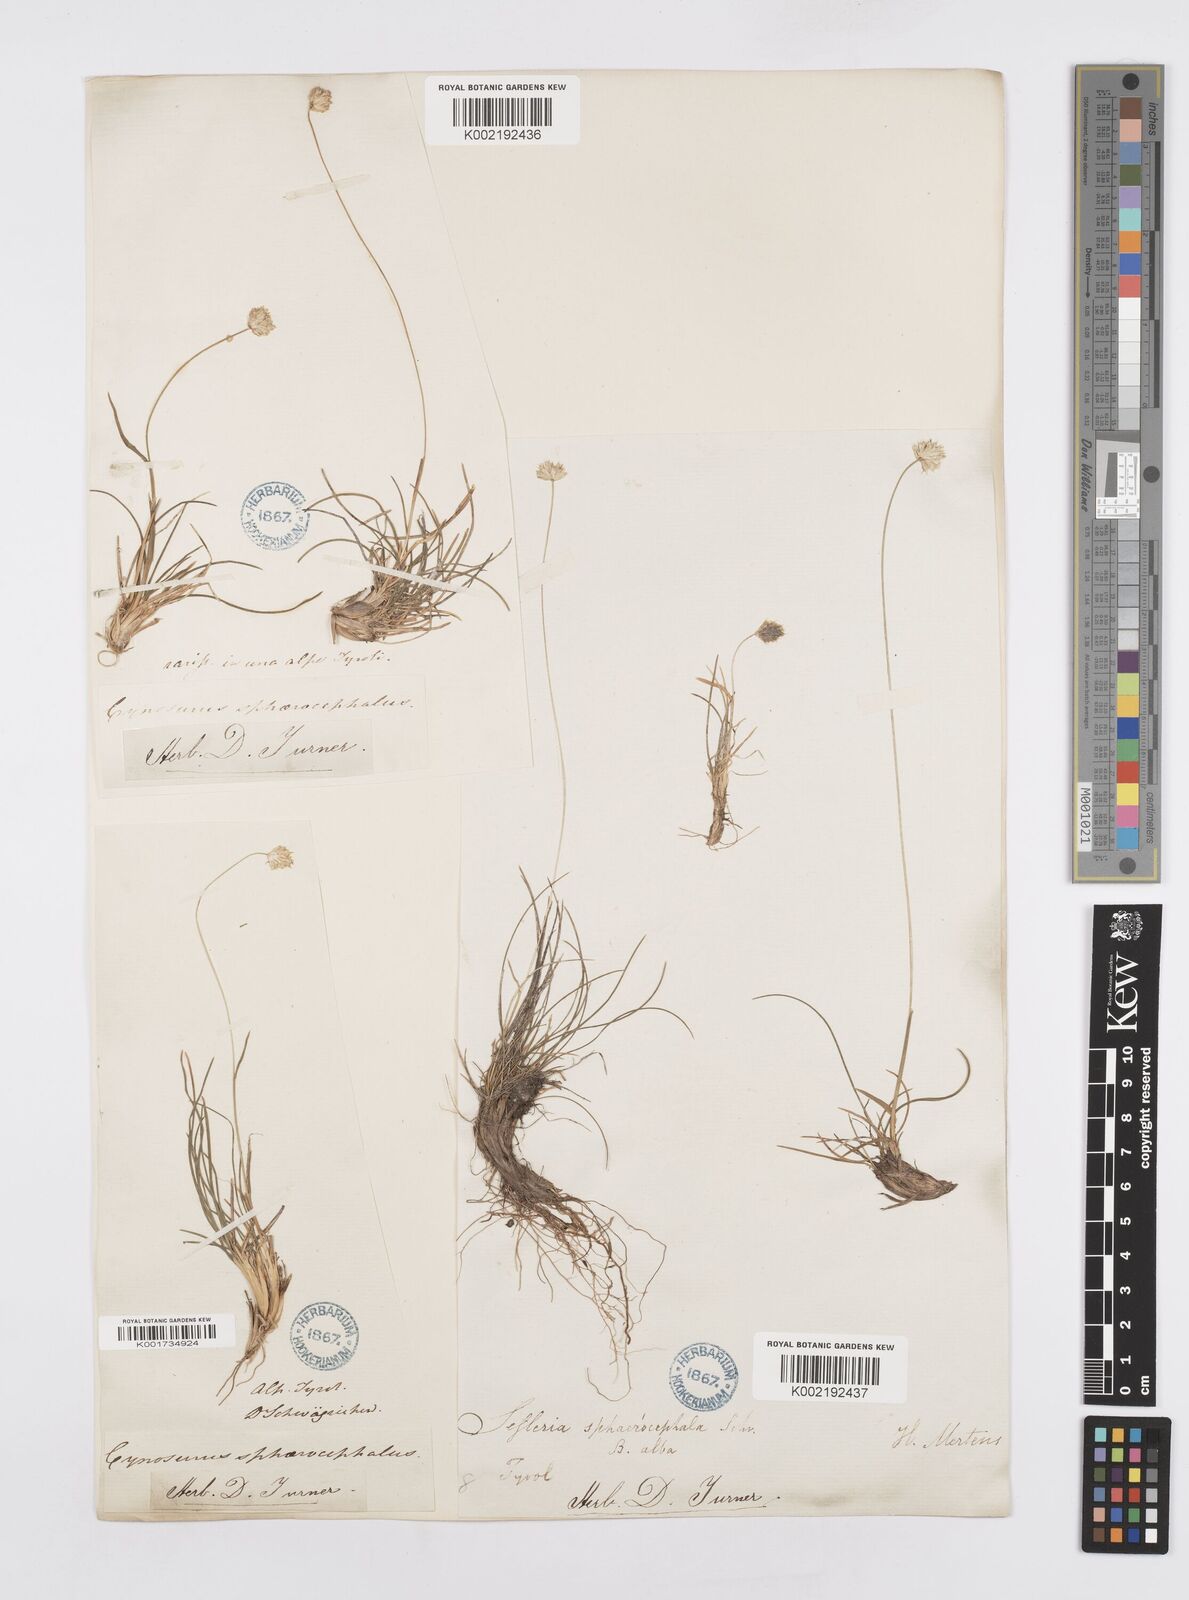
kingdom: Plantae
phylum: Tracheophyta
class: Liliopsida
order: Poales
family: Poaceae
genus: Sesleriella
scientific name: Sesleriella sphaerocephala
